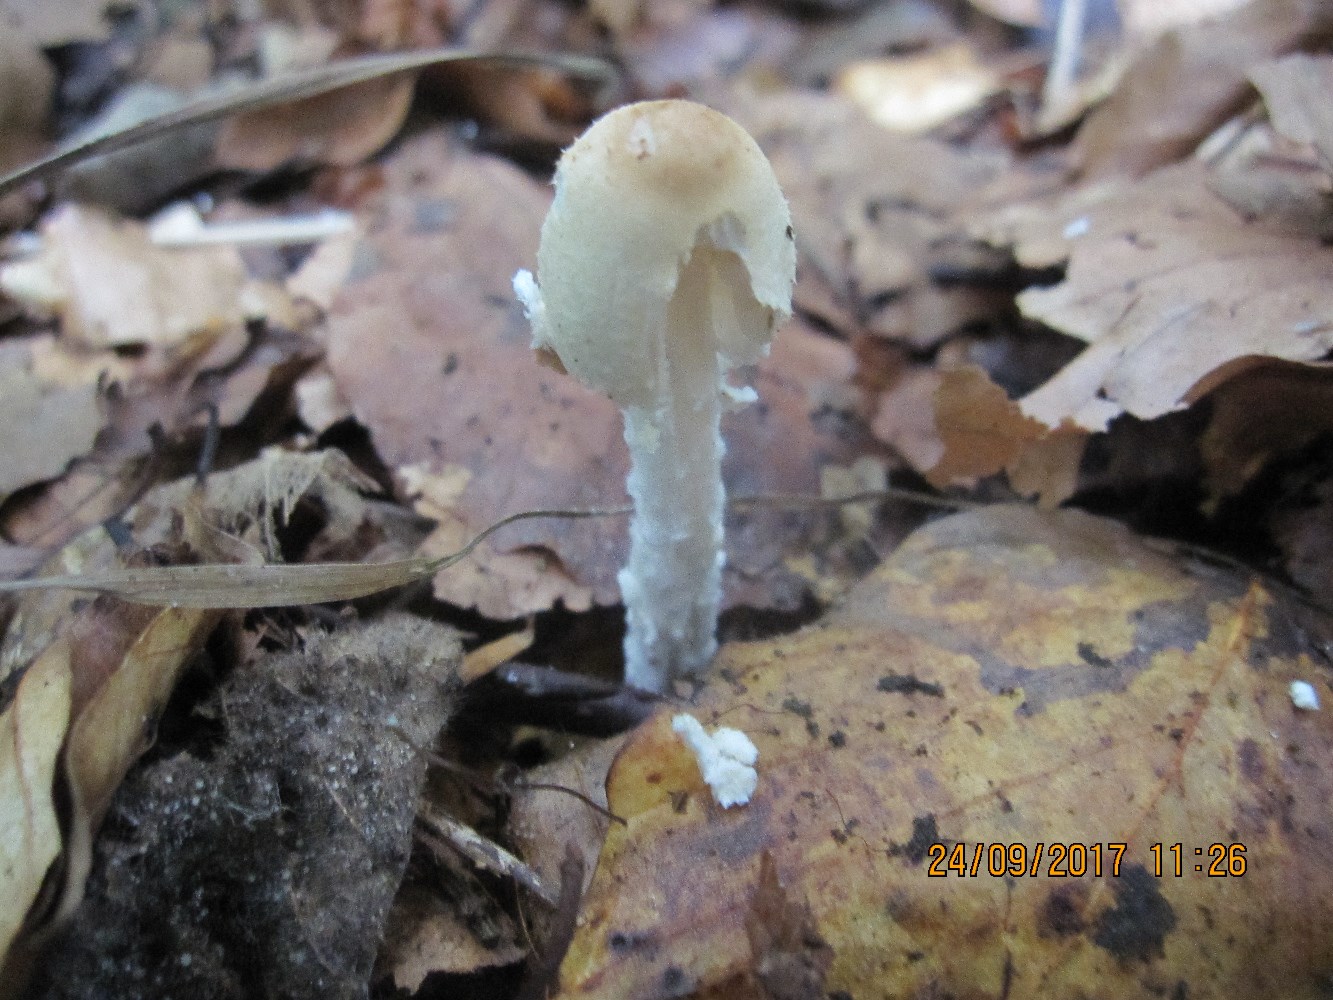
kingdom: Fungi
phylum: Basidiomycota
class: Agaricomycetes
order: Agaricales
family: Agaricaceae
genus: Lepiota
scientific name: Lepiota clypeolaria
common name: flosset parasolhat
